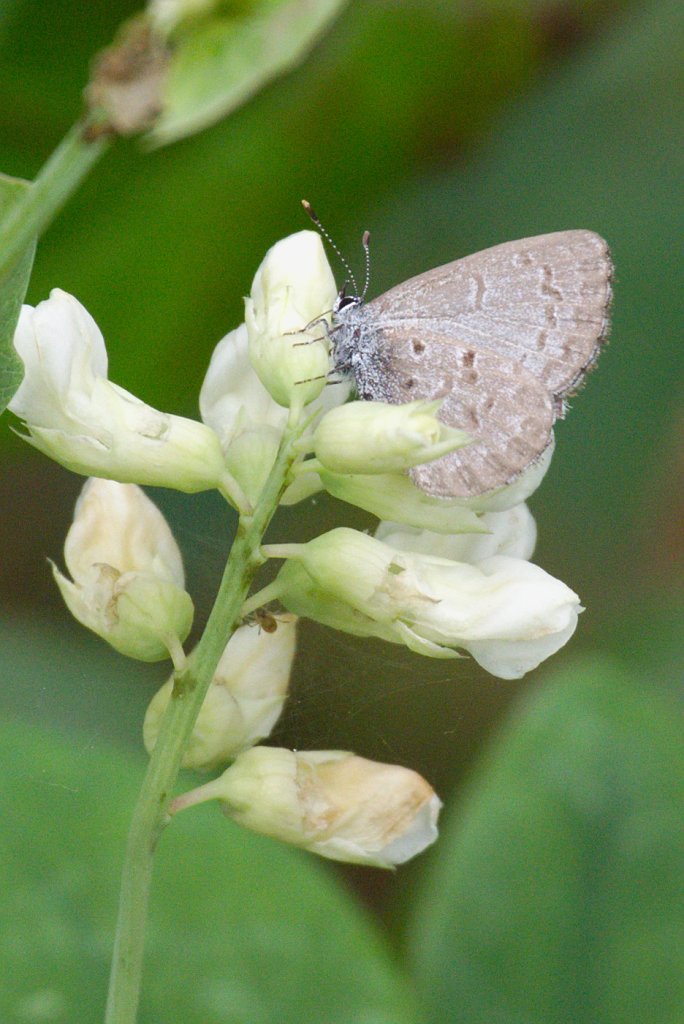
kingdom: Animalia
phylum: Arthropoda
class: Insecta
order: Lepidoptera
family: Lycaenidae
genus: Celastrina
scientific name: Celastrina lucia
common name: Northern Spring Azure
